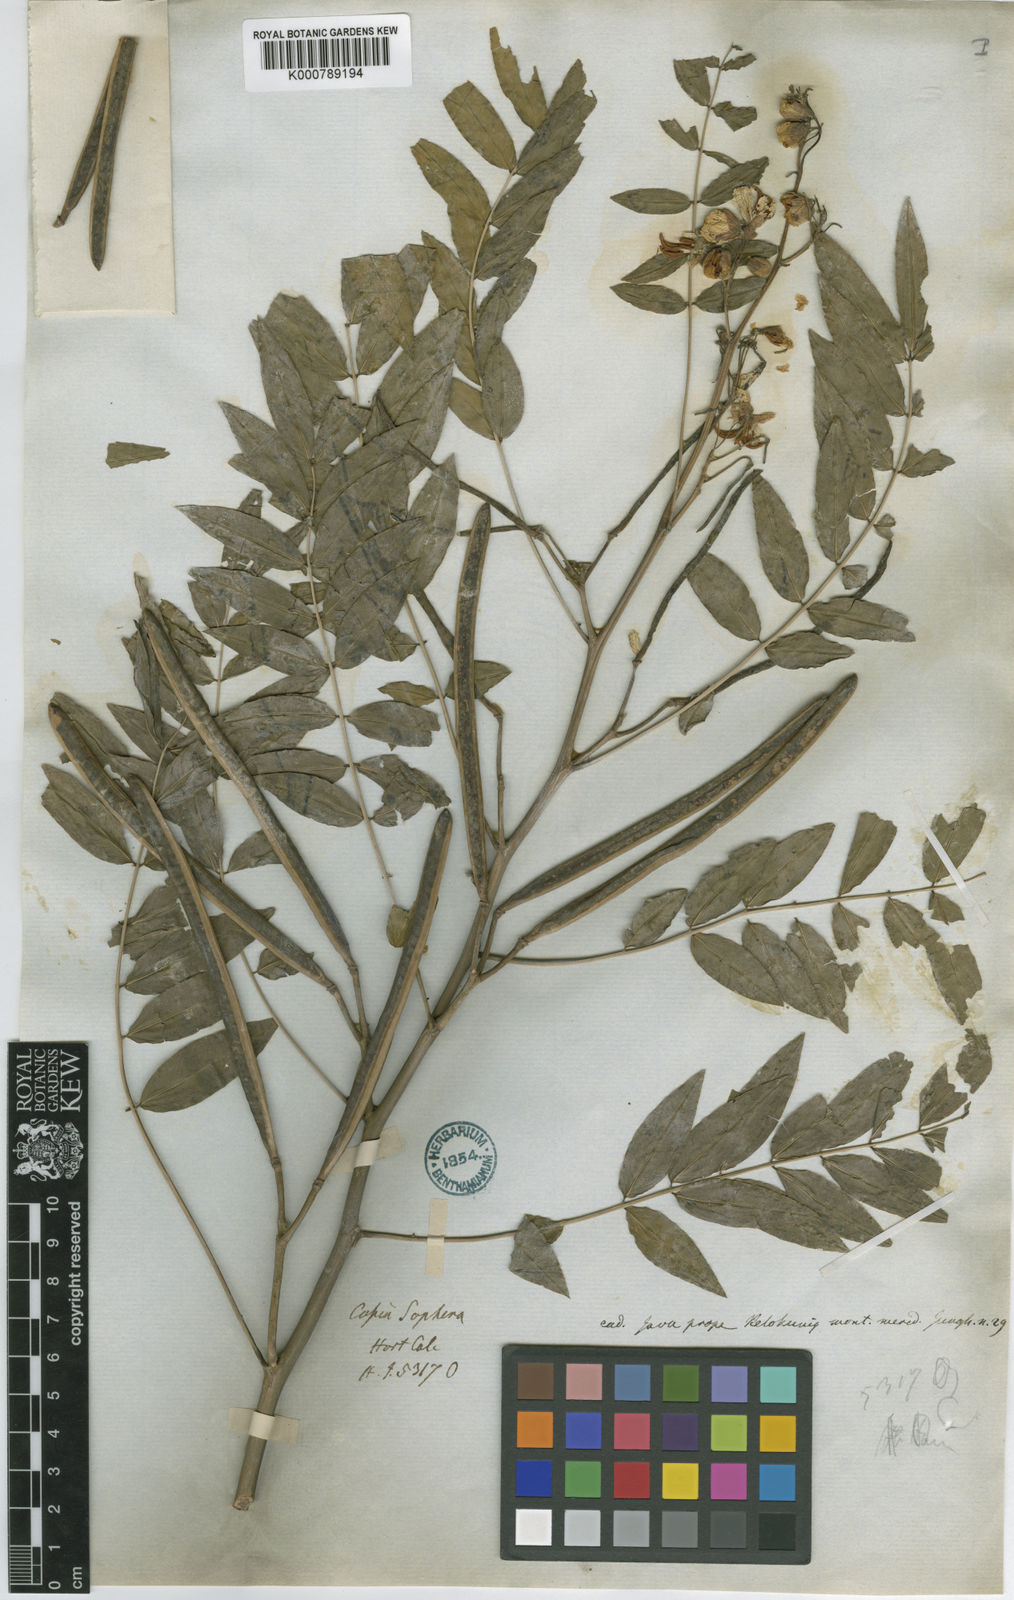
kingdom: Plantae
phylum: Tracheophyta
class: Magnoliopsida
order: Fabales
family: Fabaceae
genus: Senna
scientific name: Senna sophera
